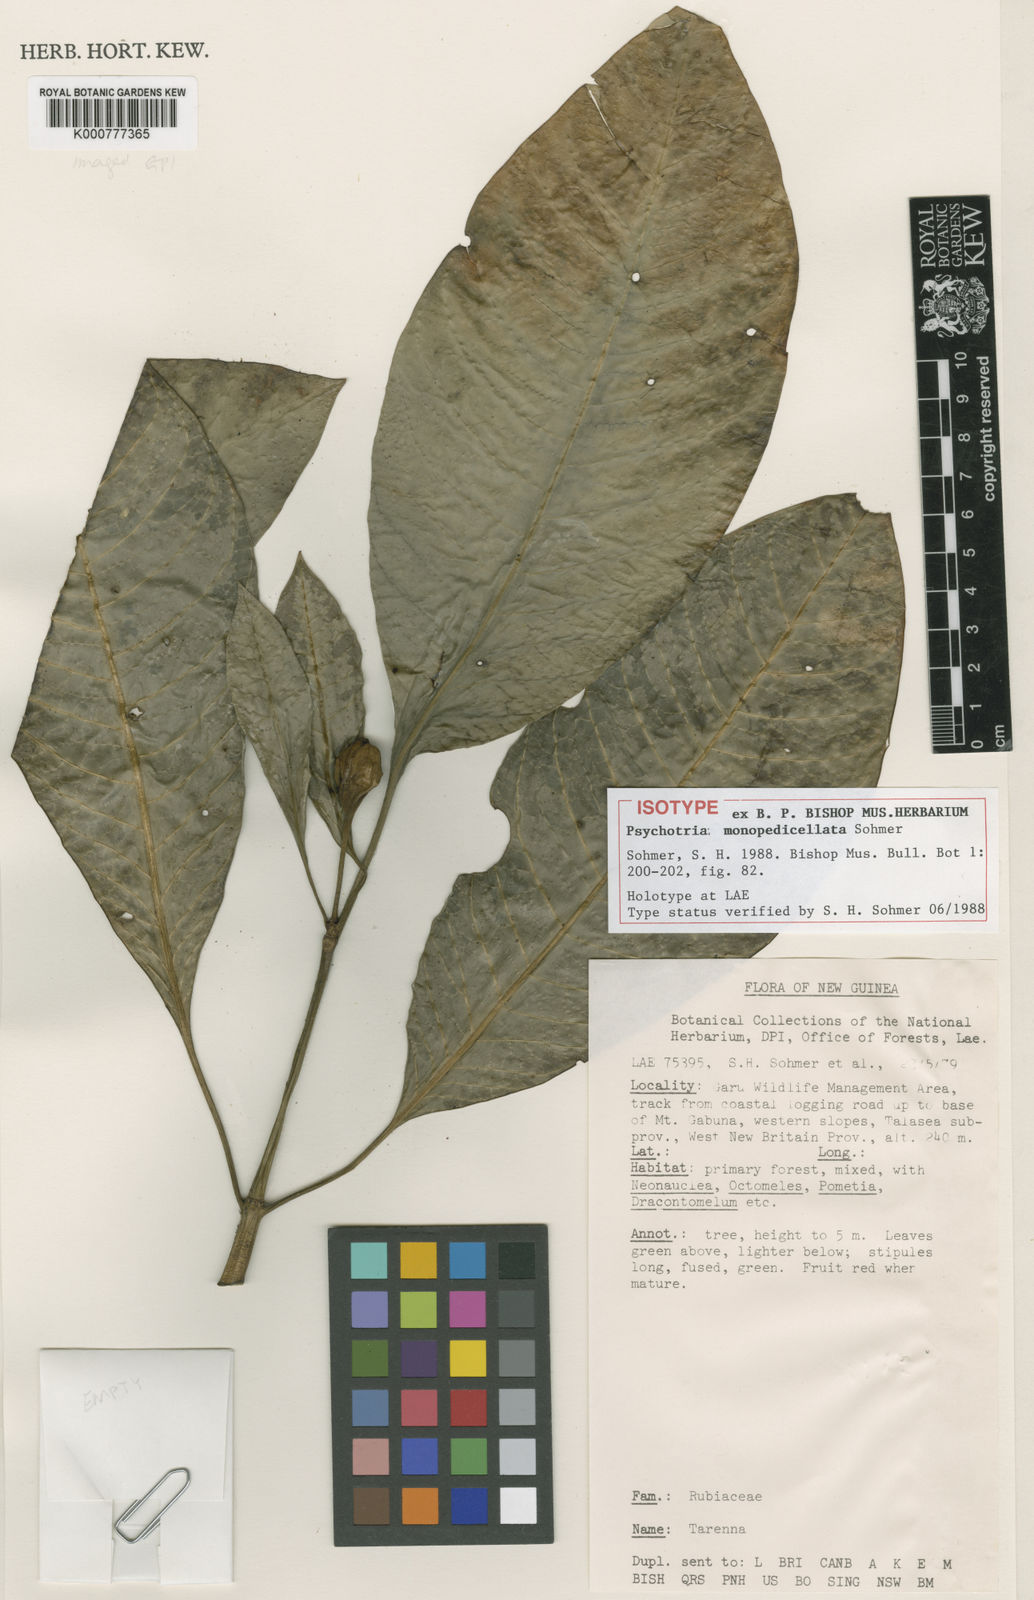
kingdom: Plantae
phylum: Tracheophyta
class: Magnoliopsida
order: Gentianales
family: Rubiaceae
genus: Eumachia
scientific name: Eumachia monopedicellata
